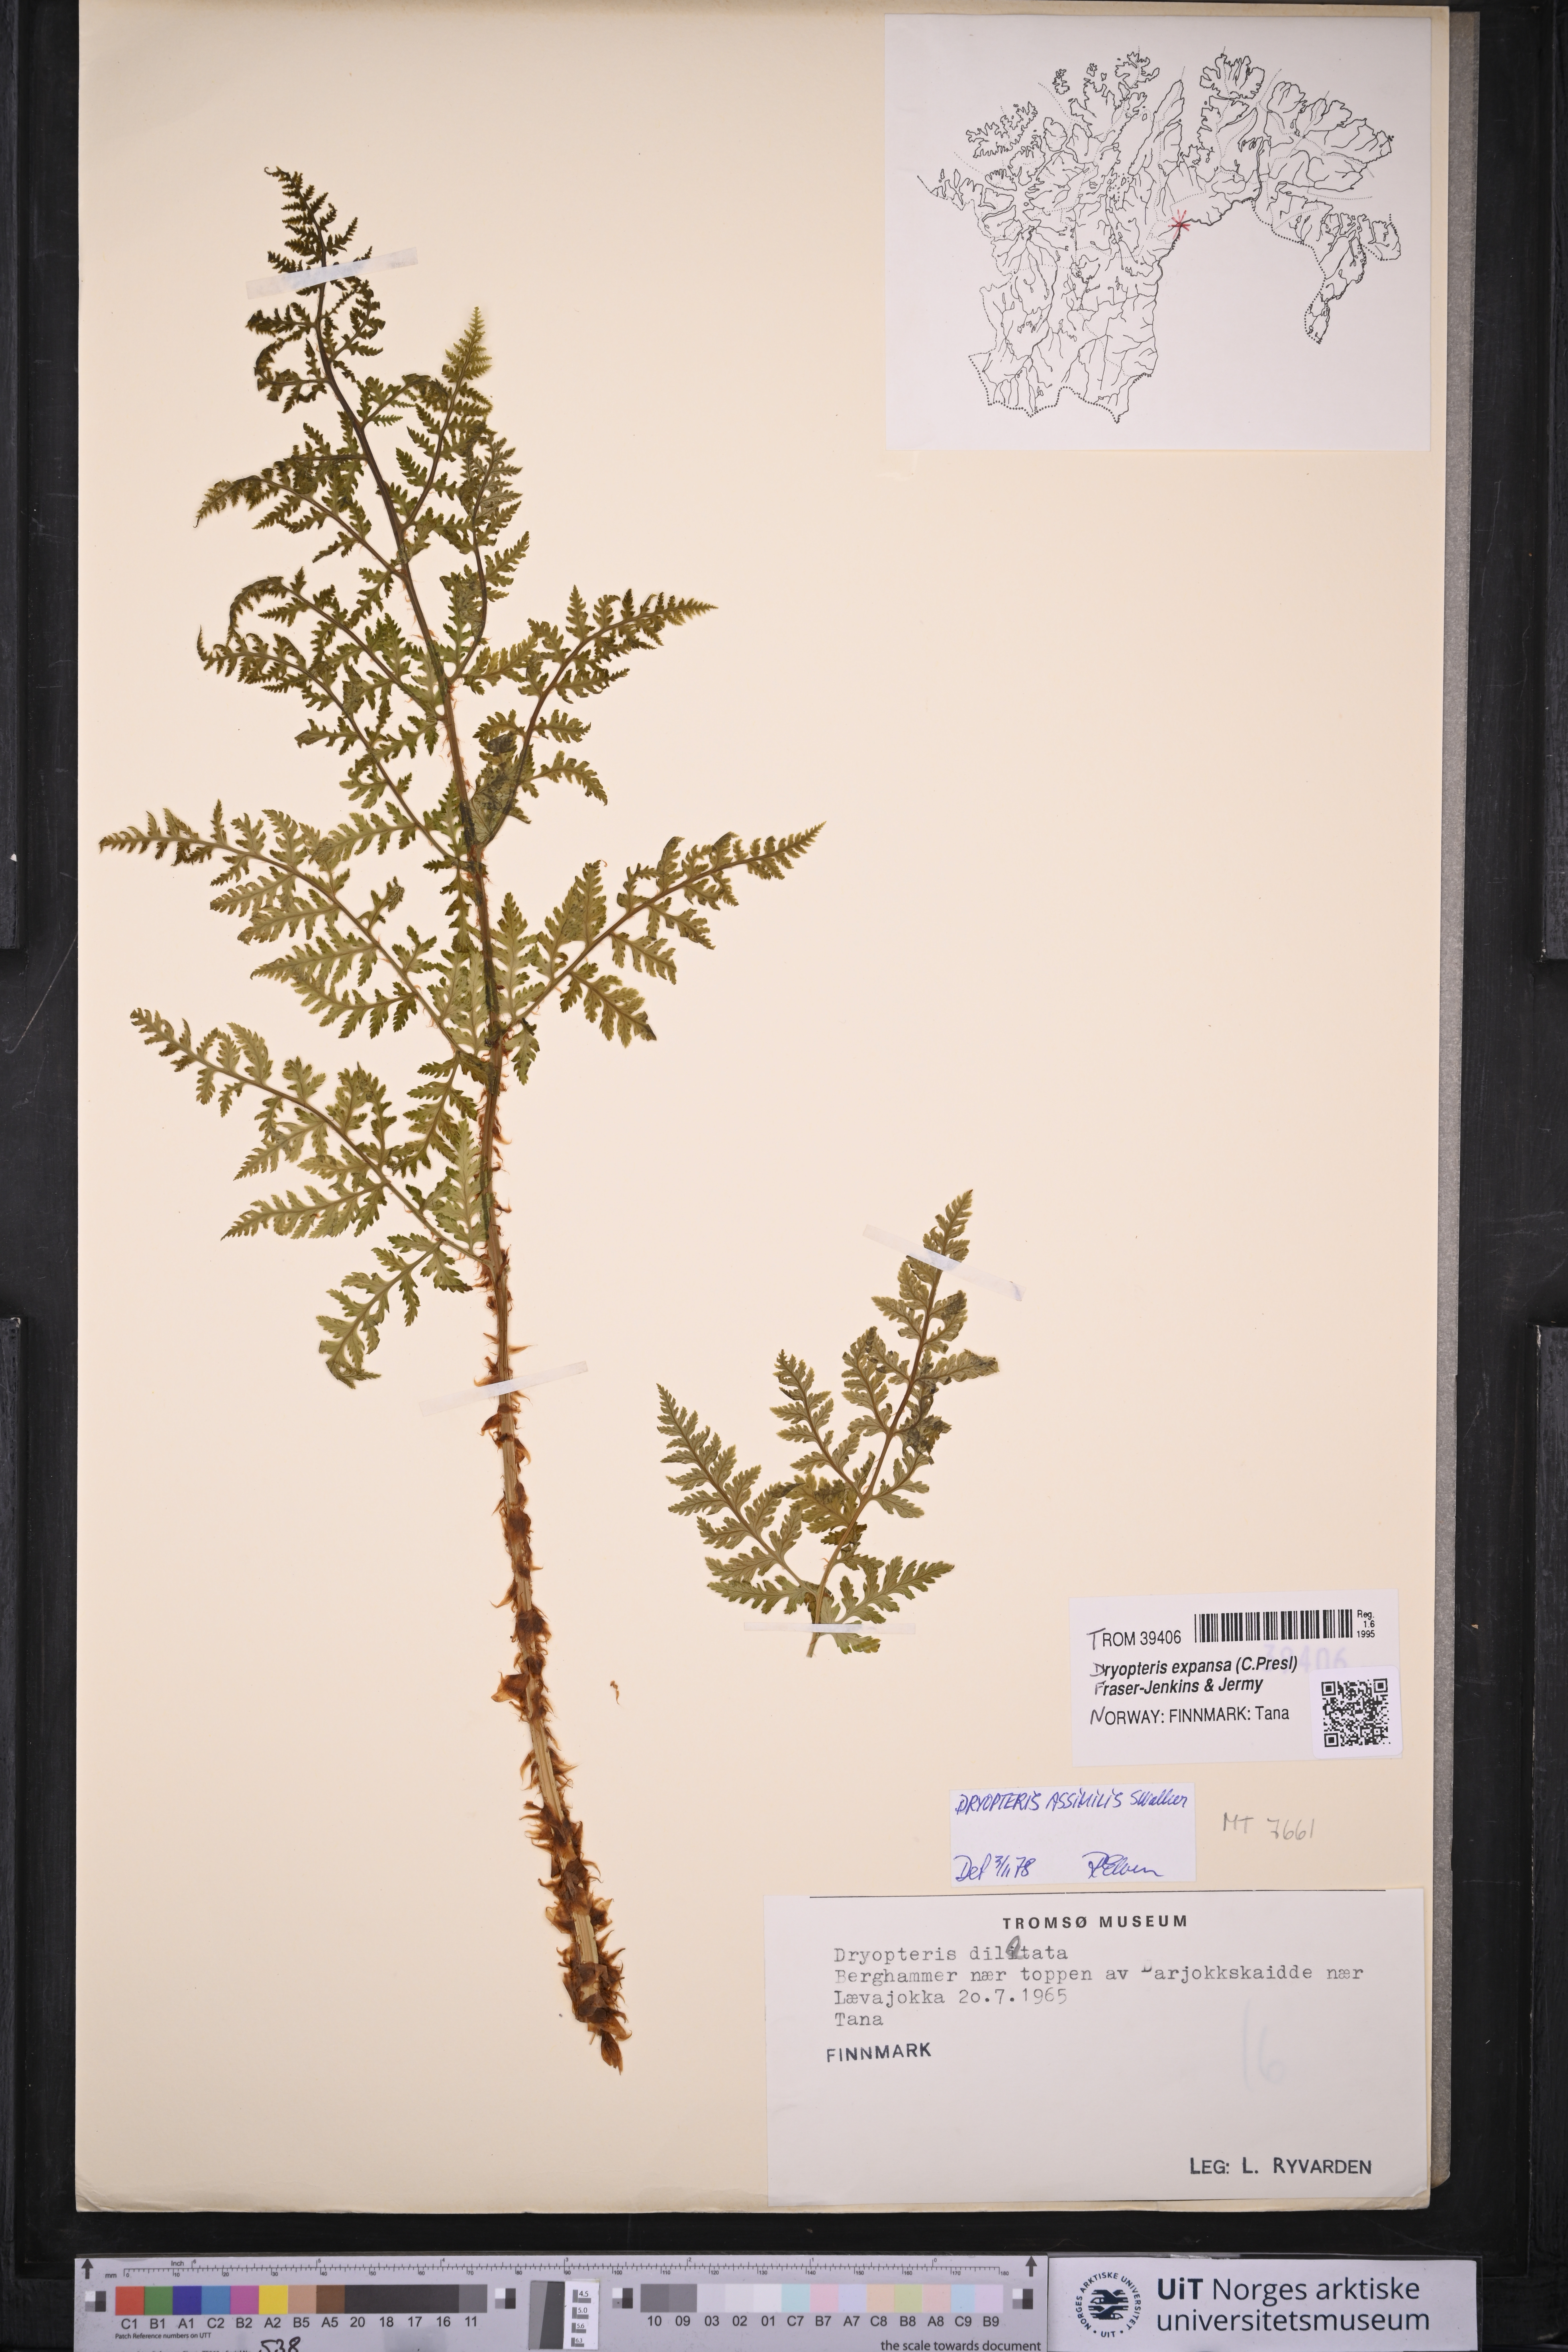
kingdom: Plantae
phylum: Tracheophyta
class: Polypodiopsida
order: Polypodiales
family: Dryopteridaceae
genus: Dryopteris
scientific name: Dryopteris expansa
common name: Northern buckler fern
